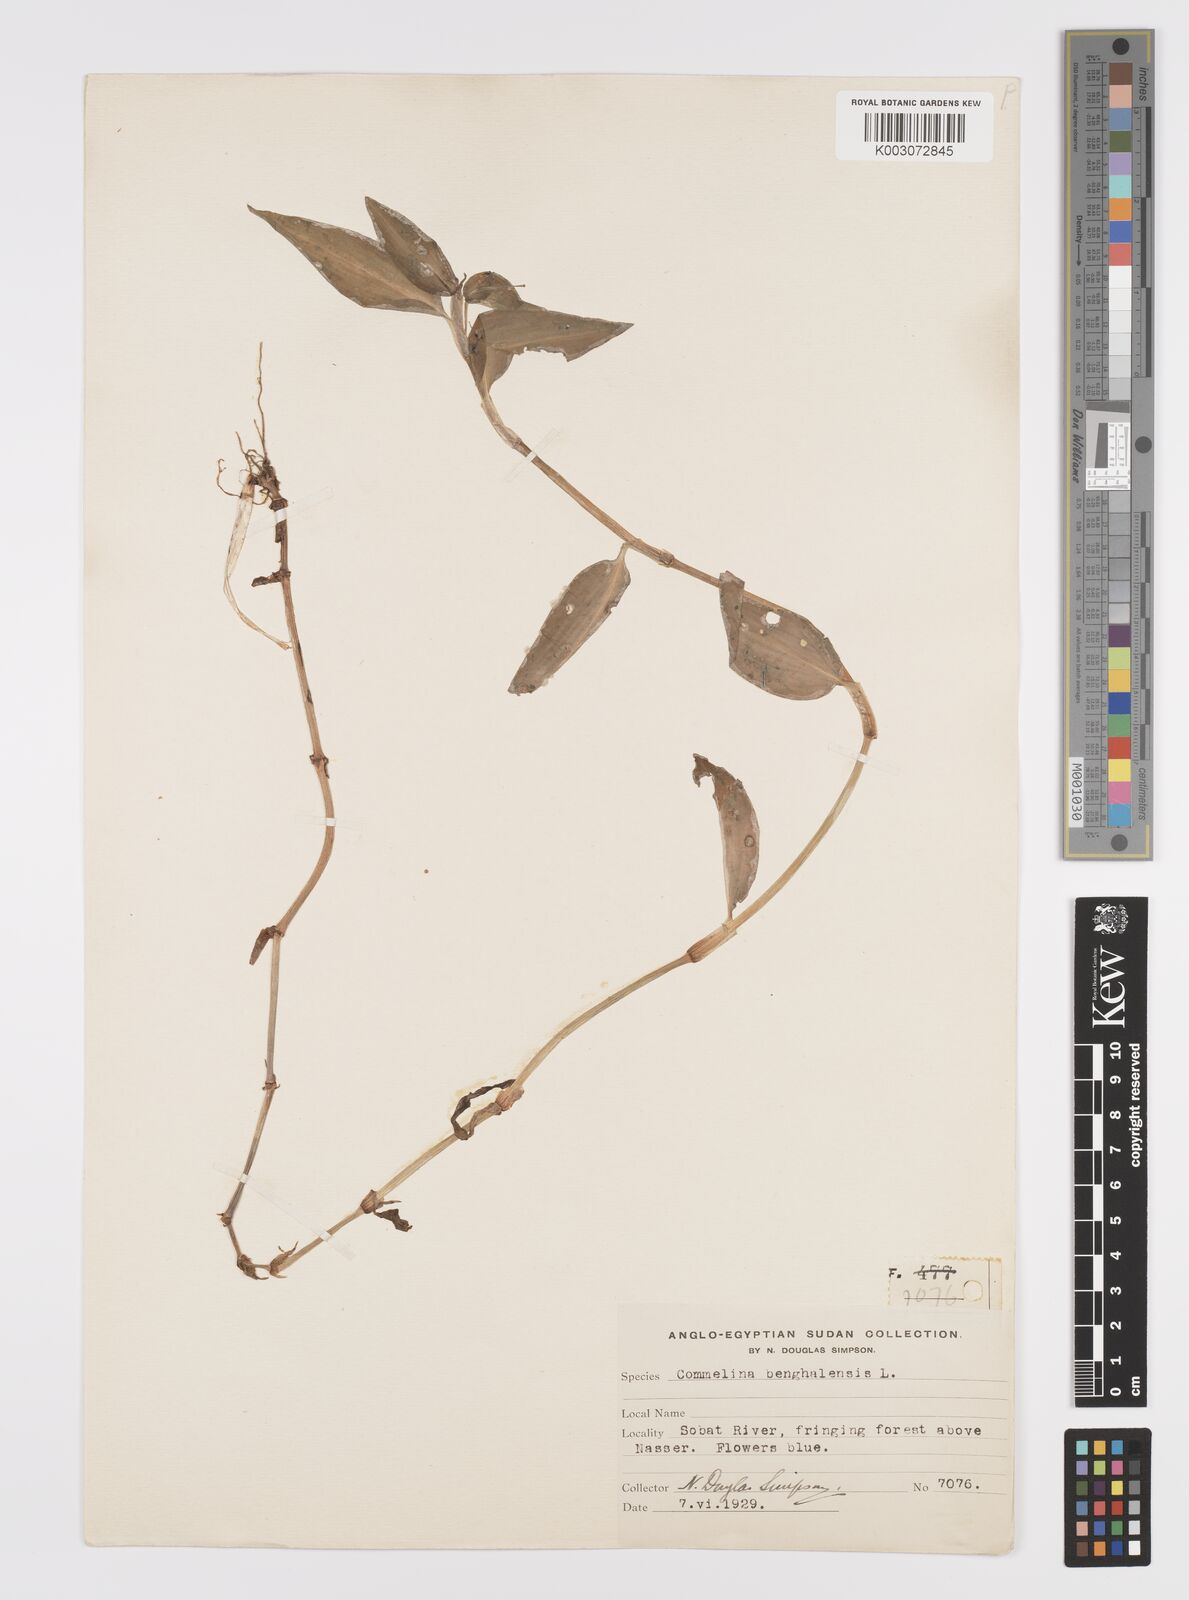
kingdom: Plantae
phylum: Tracheophyta
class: Liliopsida
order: Commelinales
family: Commelinaceae
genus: Commelina
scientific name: Commelina benghalensis
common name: Jio
